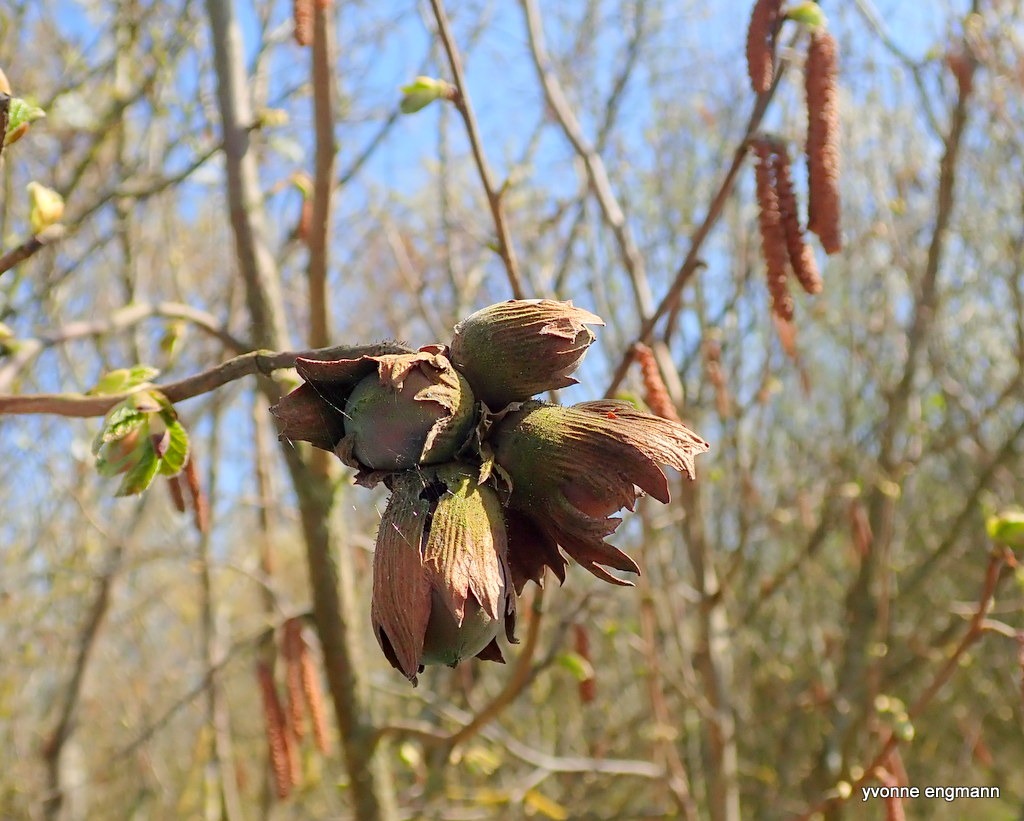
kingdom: Plantae
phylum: Tracheophyta
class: Magnoliopsida
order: Fagales
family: Betulaceae
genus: Corylus
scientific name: Corylus avellana
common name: Hassel
